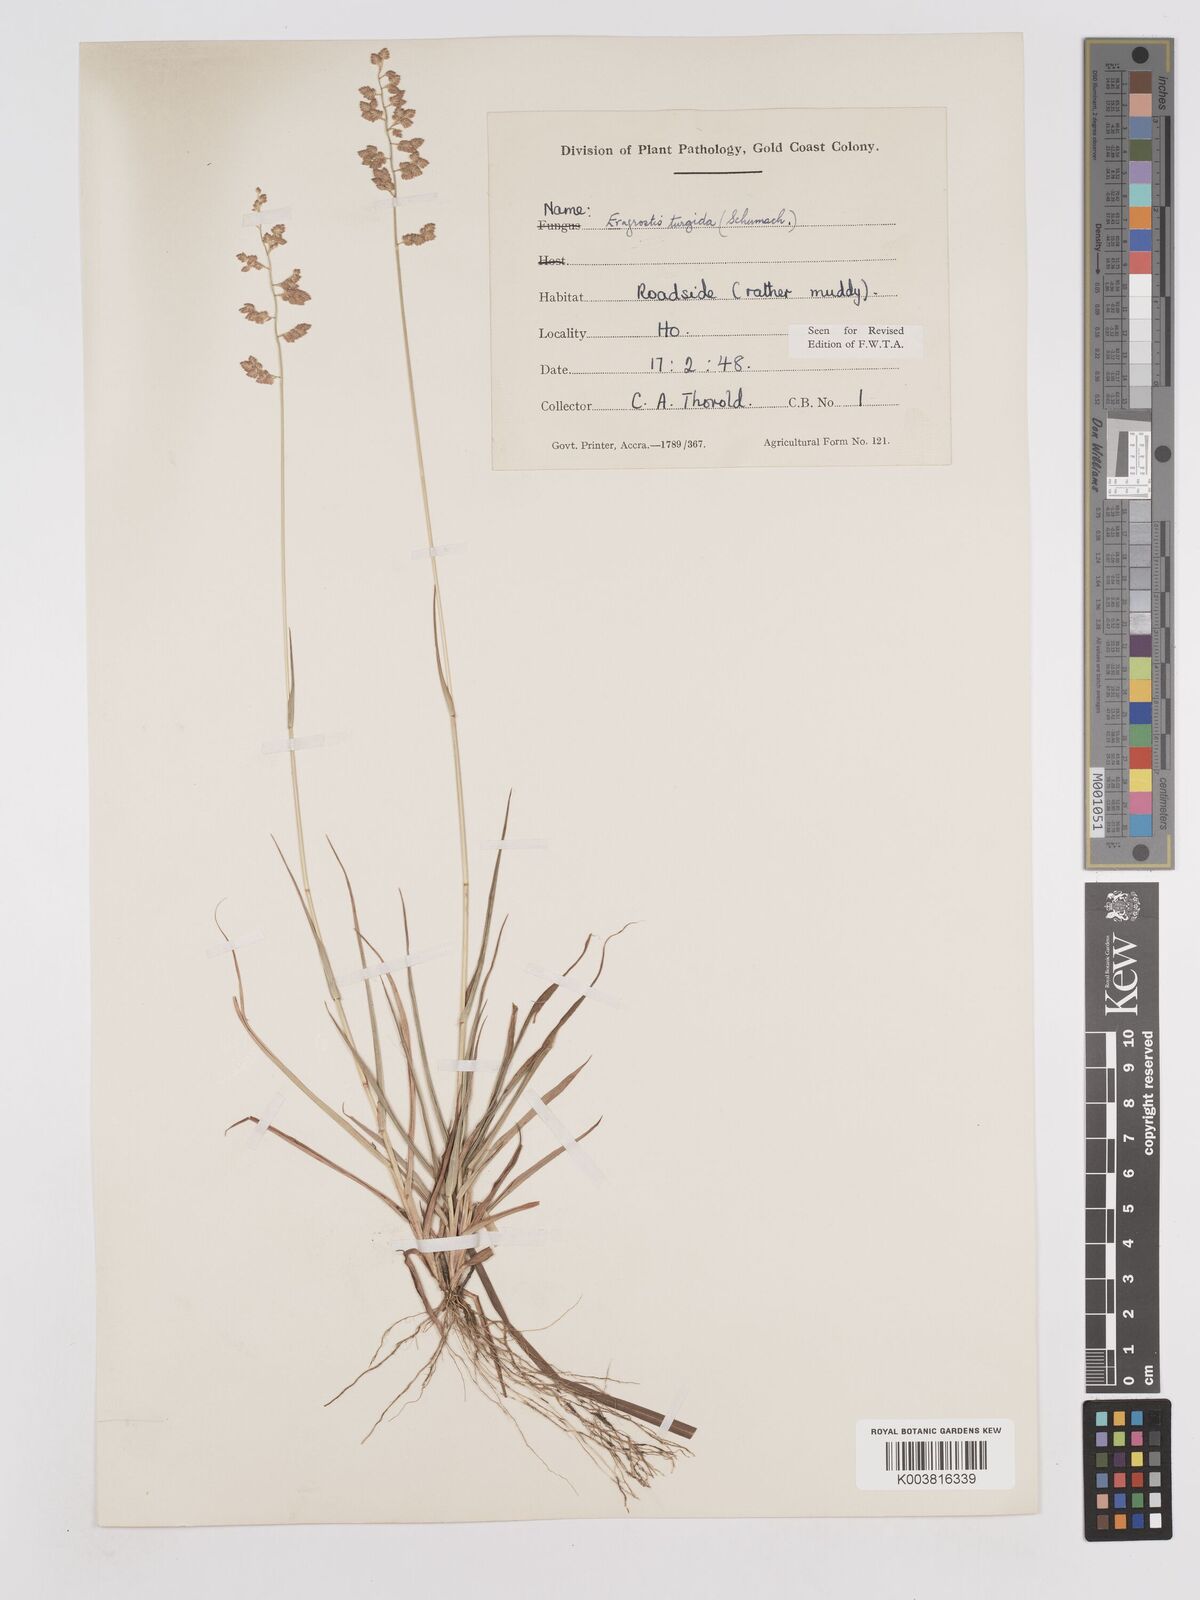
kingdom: Plantae
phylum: Tracheophyta
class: Liliopsida
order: Poales
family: Poaceae
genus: Eragrostis
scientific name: Eragrostis turgida
